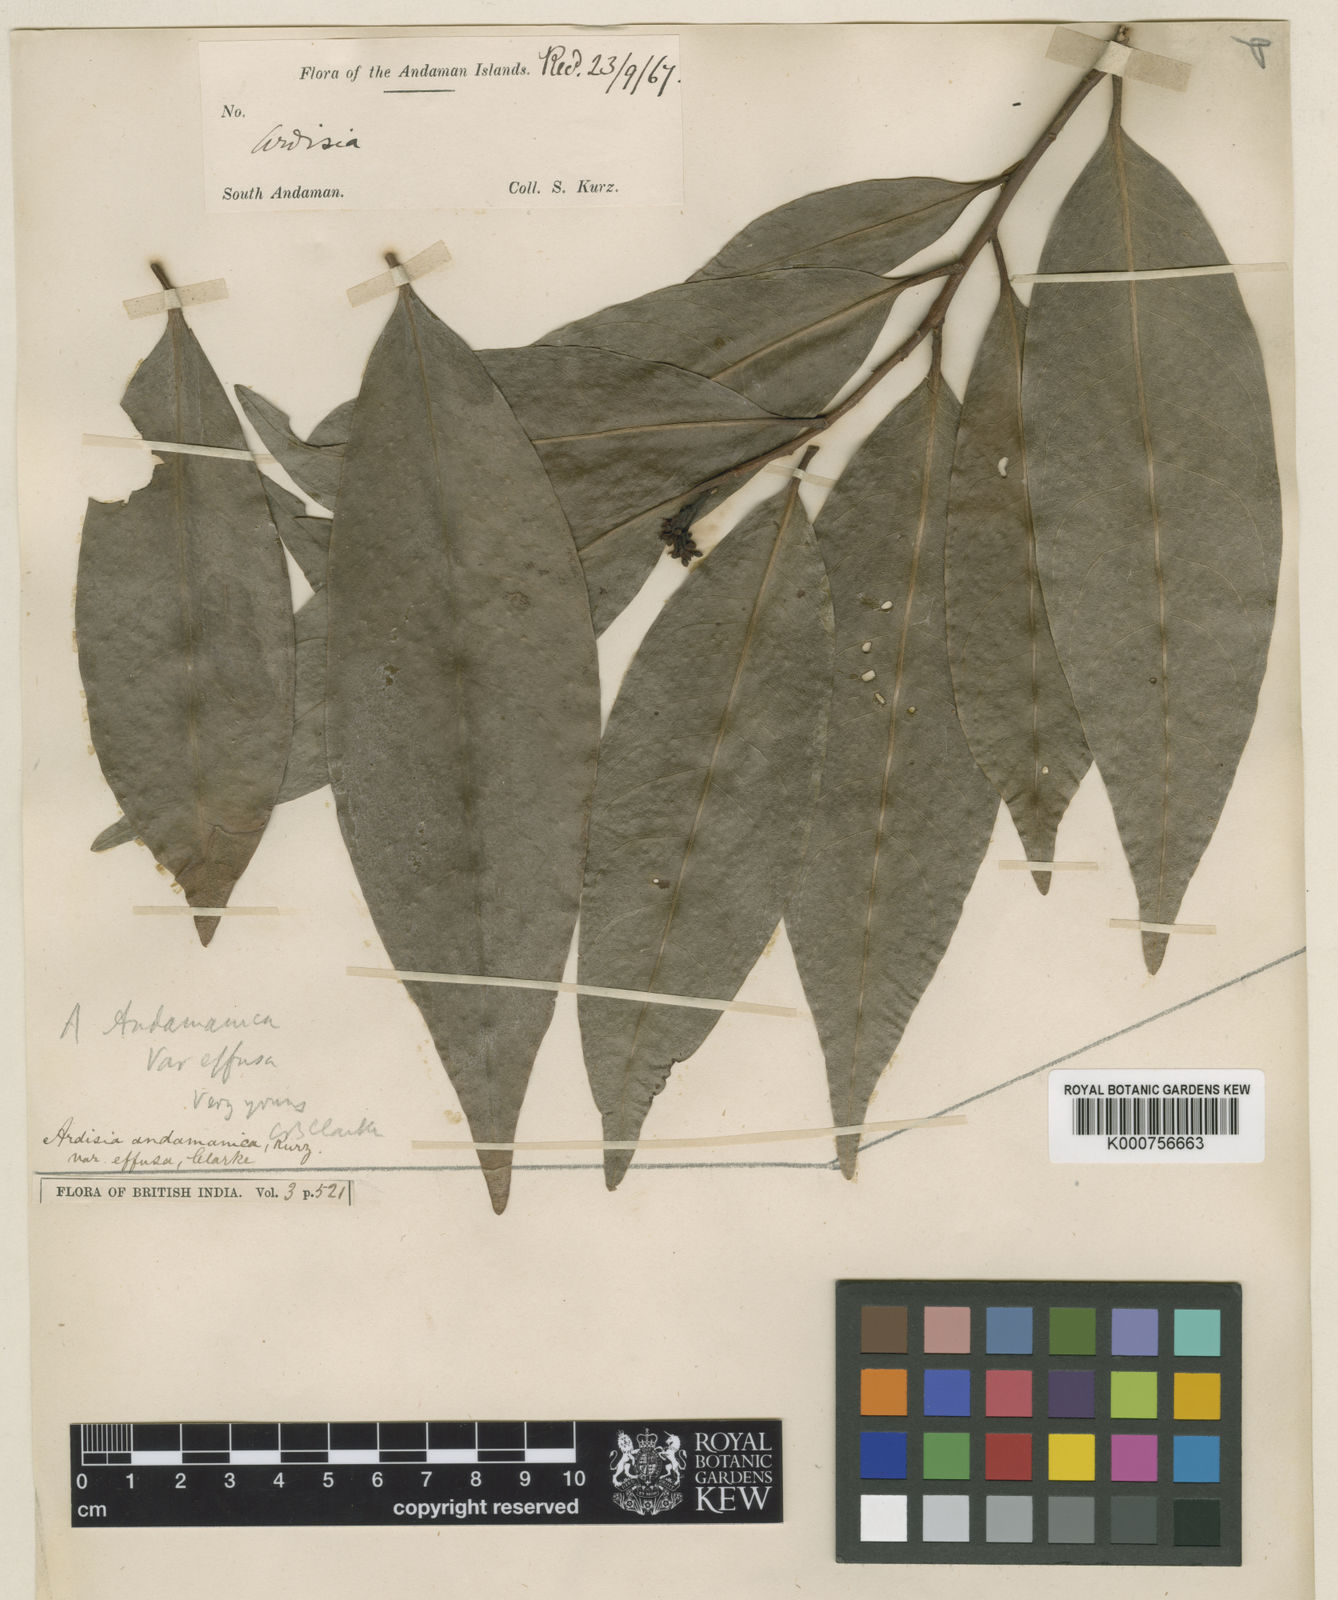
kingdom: Plantae
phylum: Tracheophyta
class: Magnoliopsida
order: Ericales
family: Primulaceae
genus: Ardisia
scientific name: Ardisia andamanica
